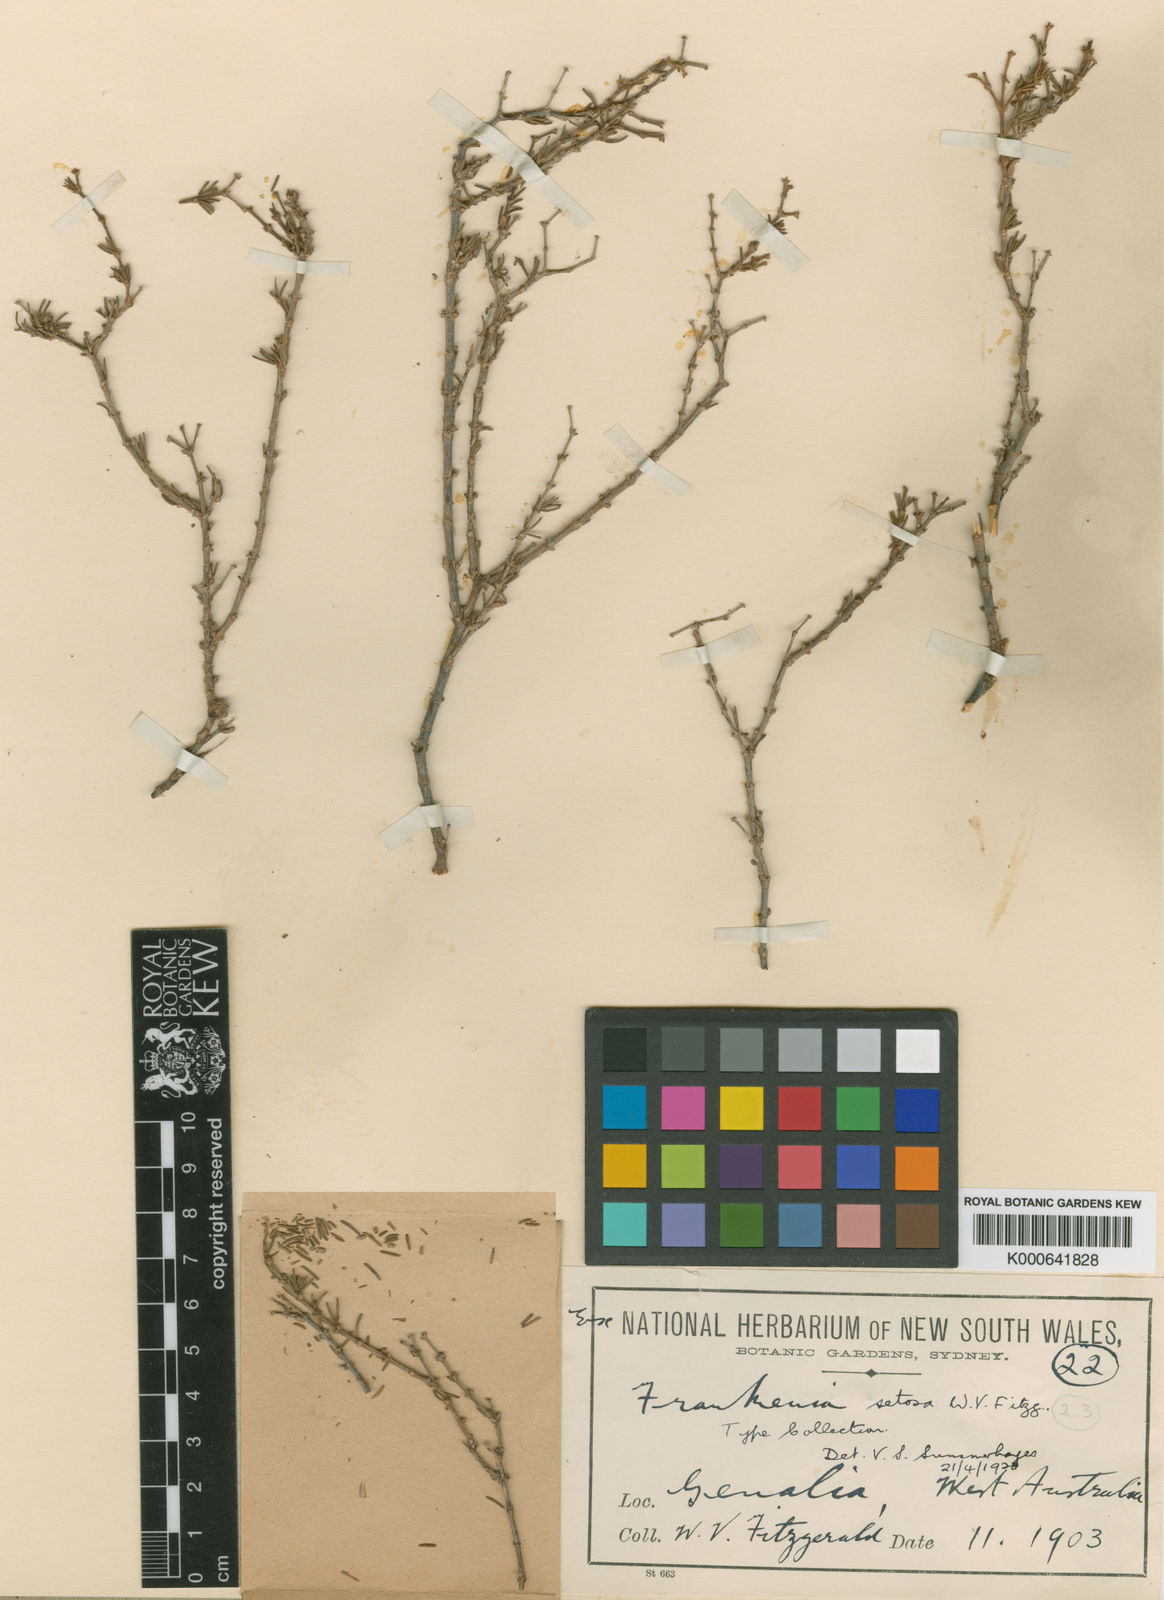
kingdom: Plantae
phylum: Tracheophyta
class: Magnoliopsida
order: Caryophyllales
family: Frankeniaceae
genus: Frankenia
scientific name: Frankenia setosa
